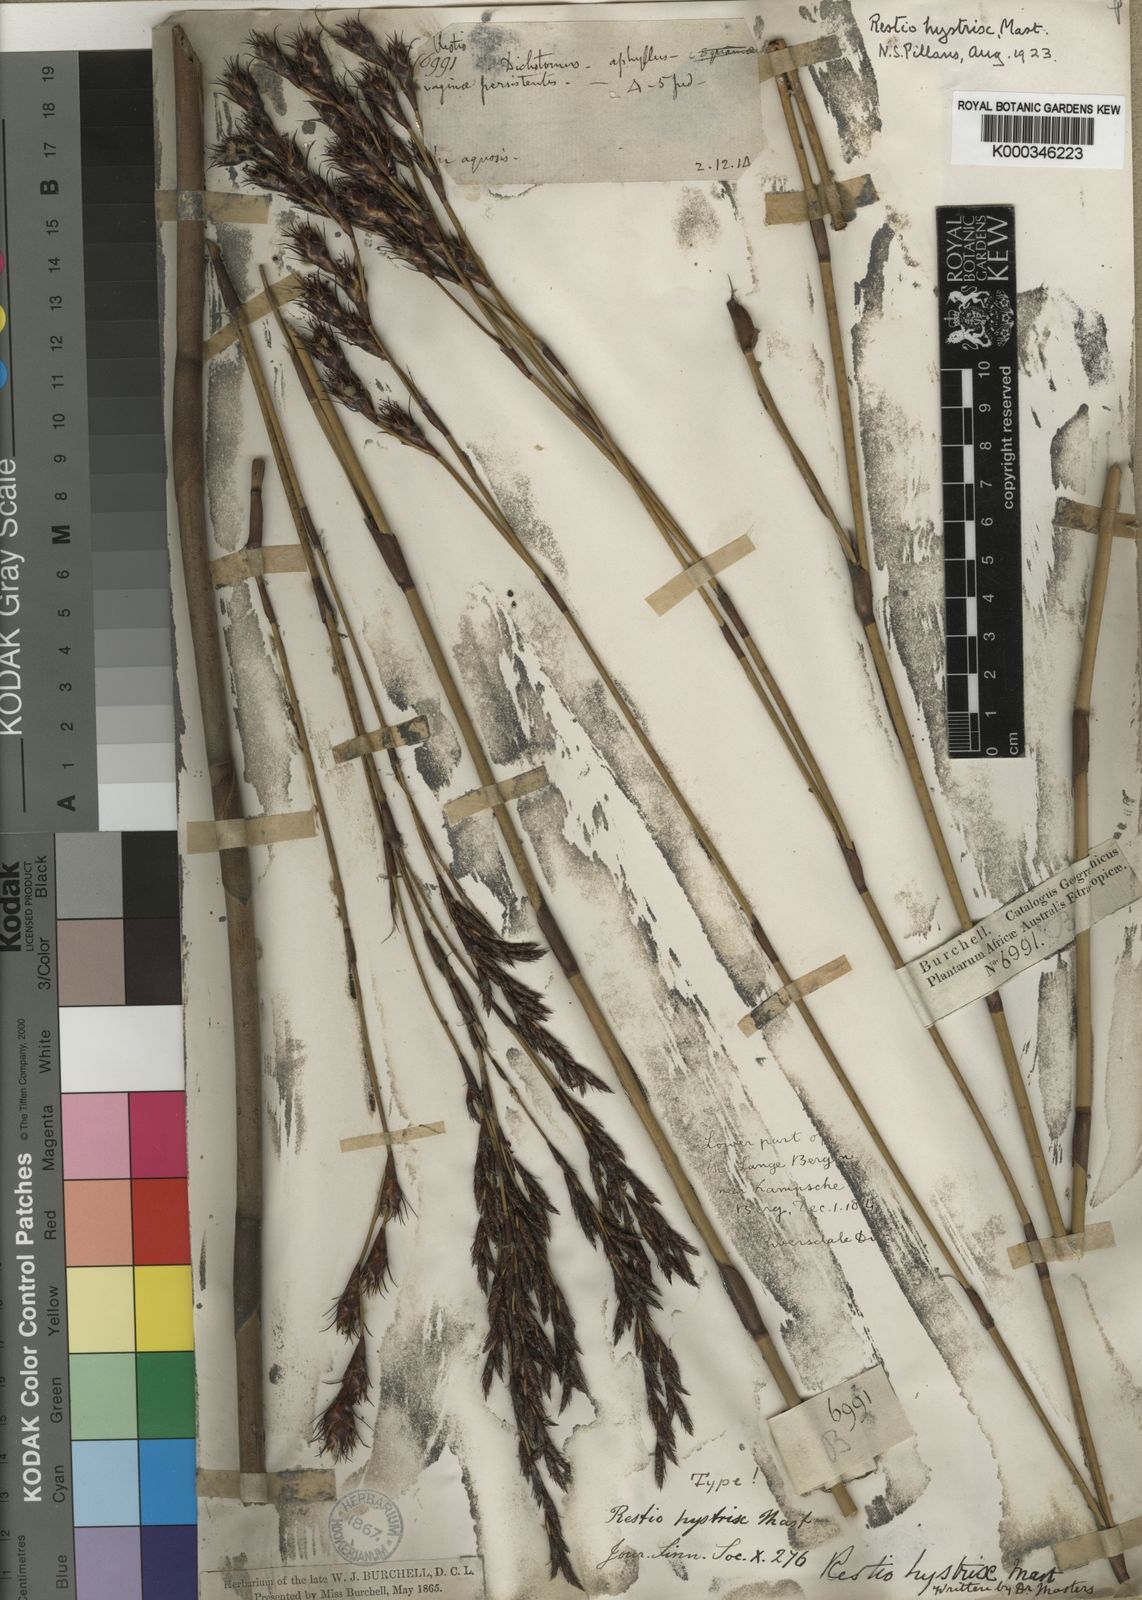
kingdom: Plantae
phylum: Tracheophyta
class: Liliopsida
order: Poales
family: Restionaceae
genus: Restio
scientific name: Restio hystrix
